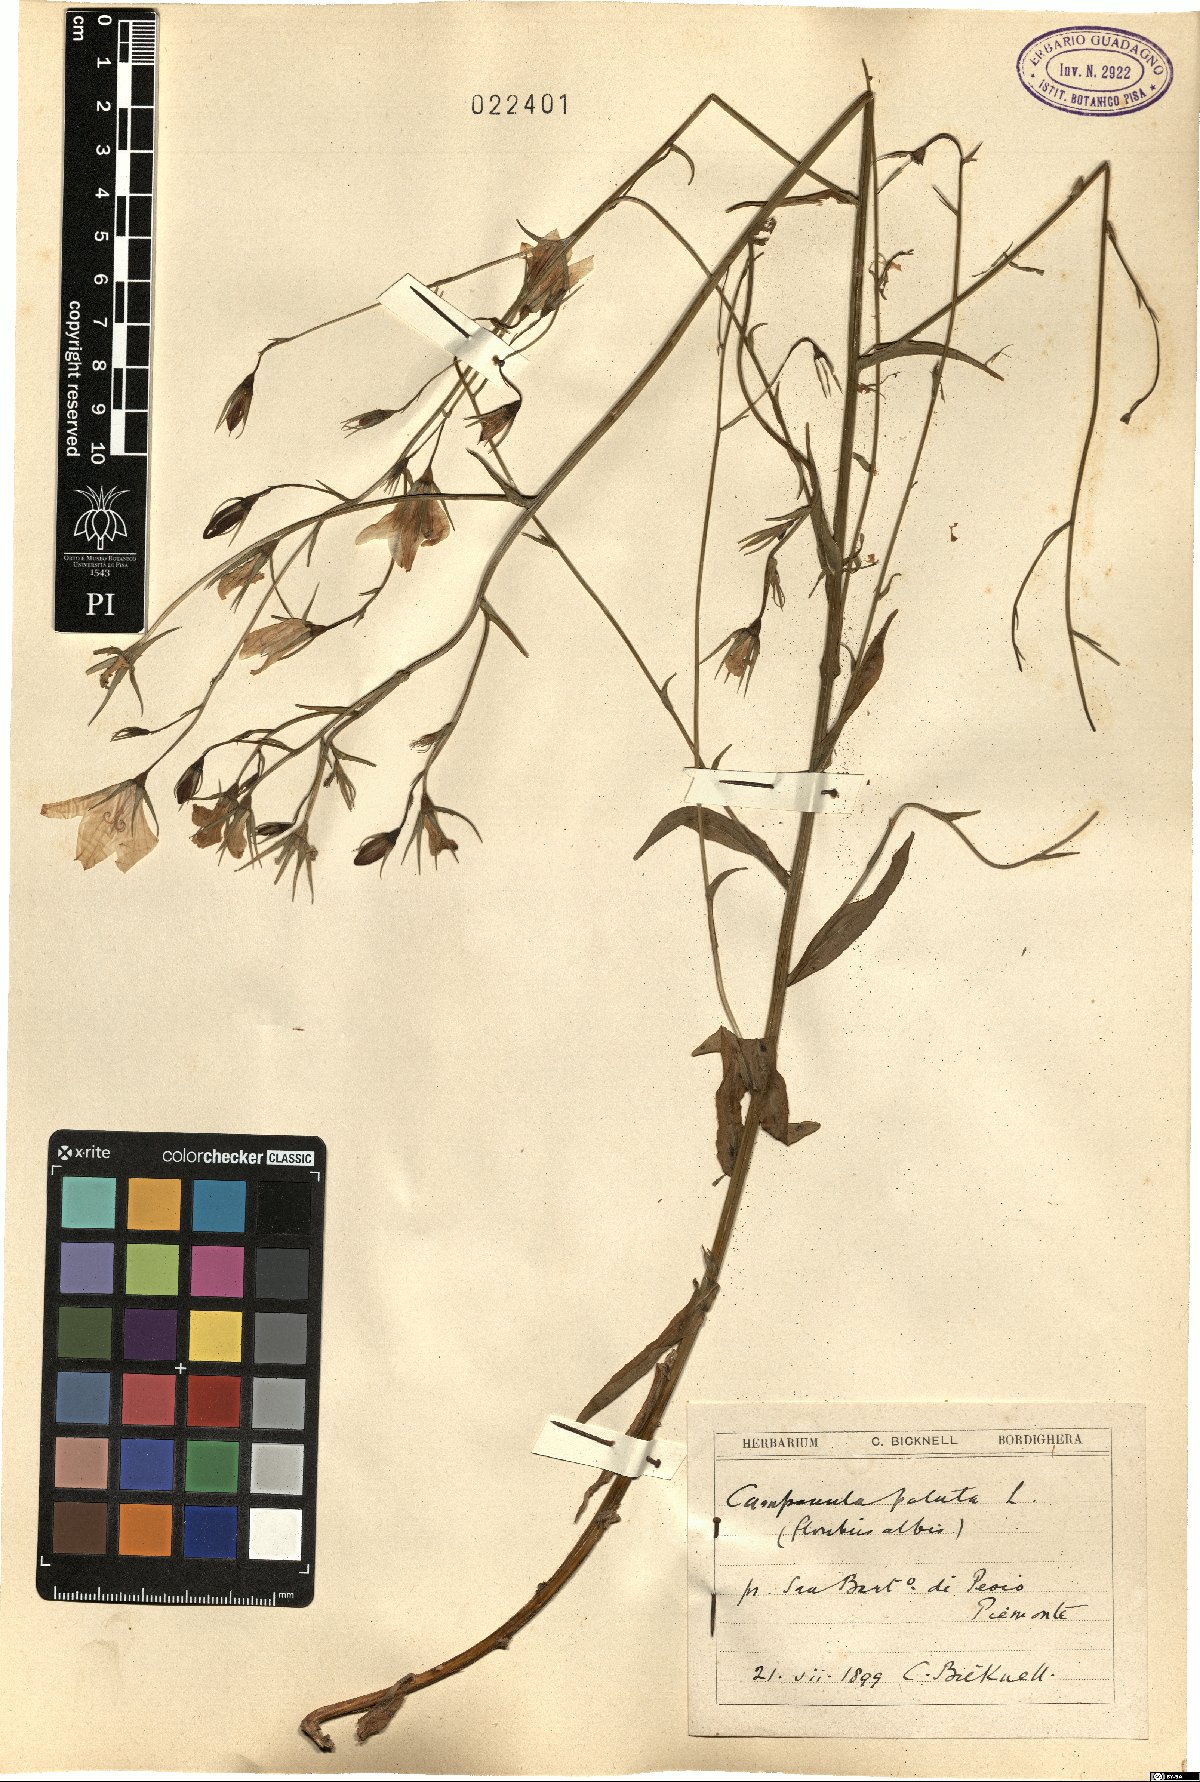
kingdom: Plantae
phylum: Tracheophyta
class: Magnoliopsida
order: Asterales
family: Campanulaceae
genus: Campanula
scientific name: Campanula patula
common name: Spreading bellflower
